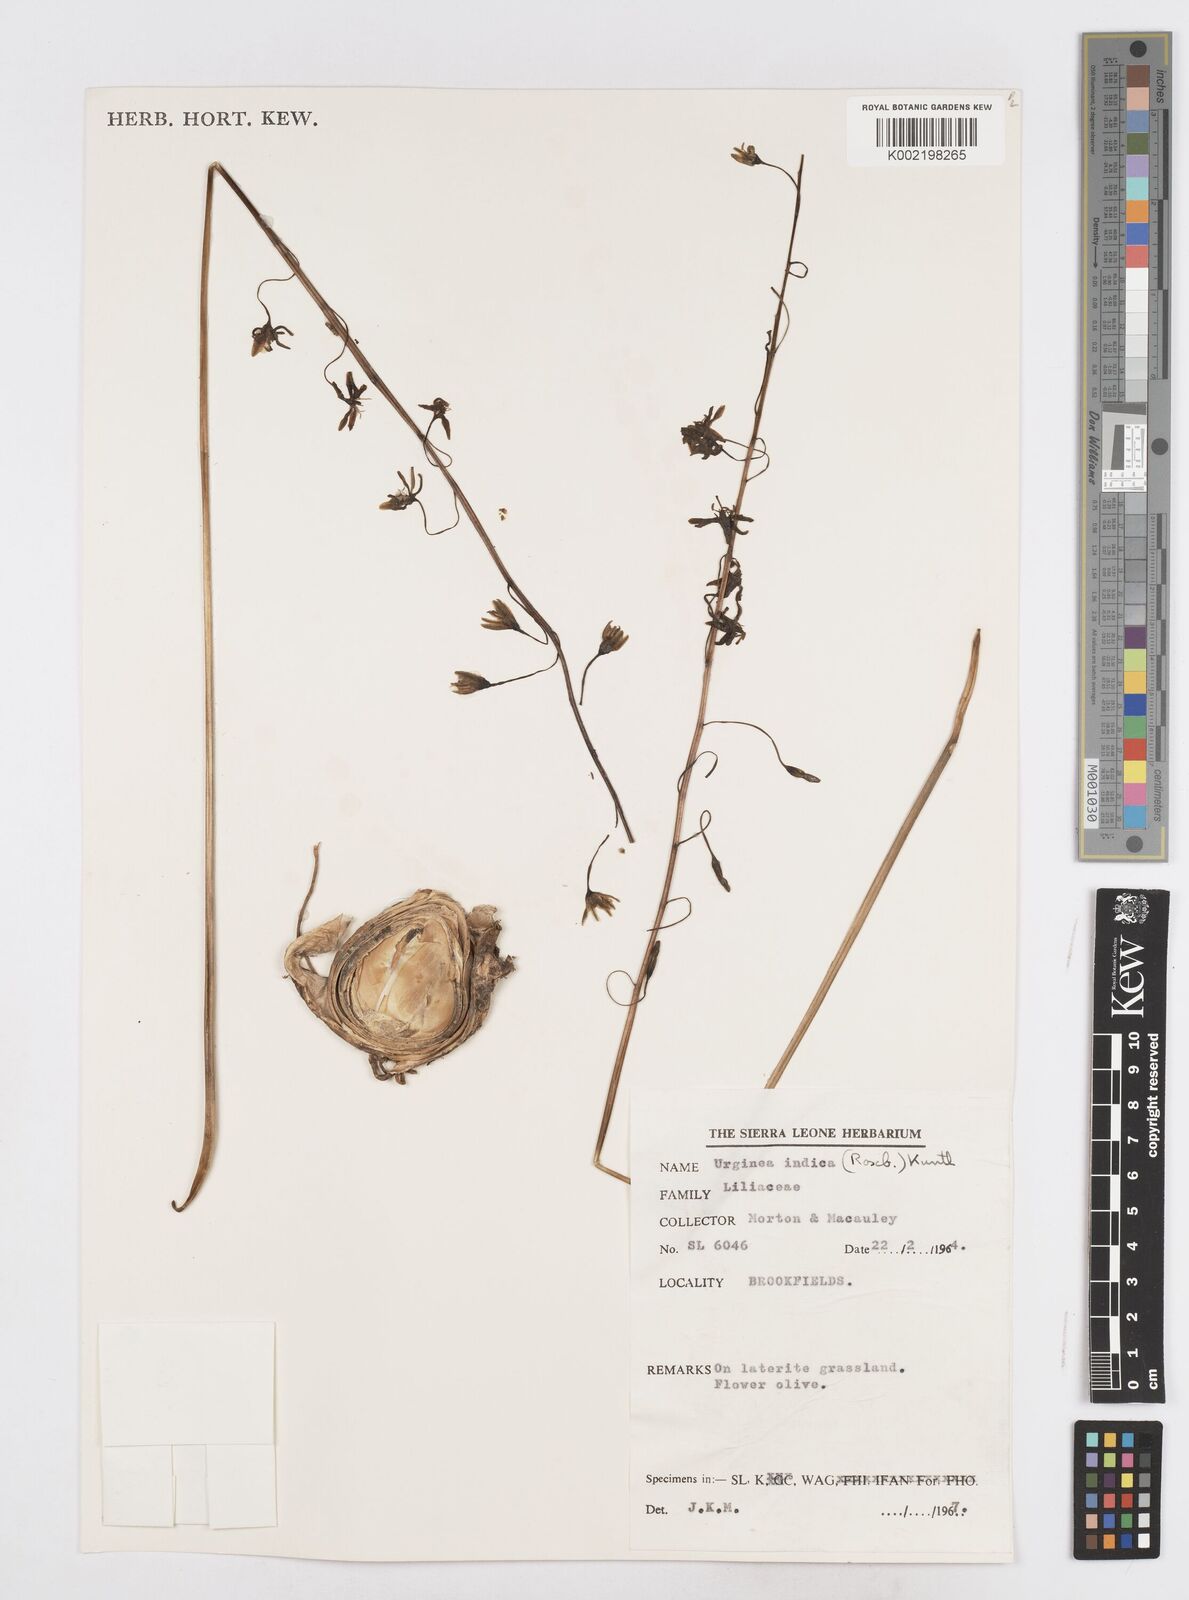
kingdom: Plantae
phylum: Tracheophyta
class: Liliopsida
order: Asparagales
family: Asparagaceae
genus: Drimia
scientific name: Drimia indica
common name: Indian-squill
